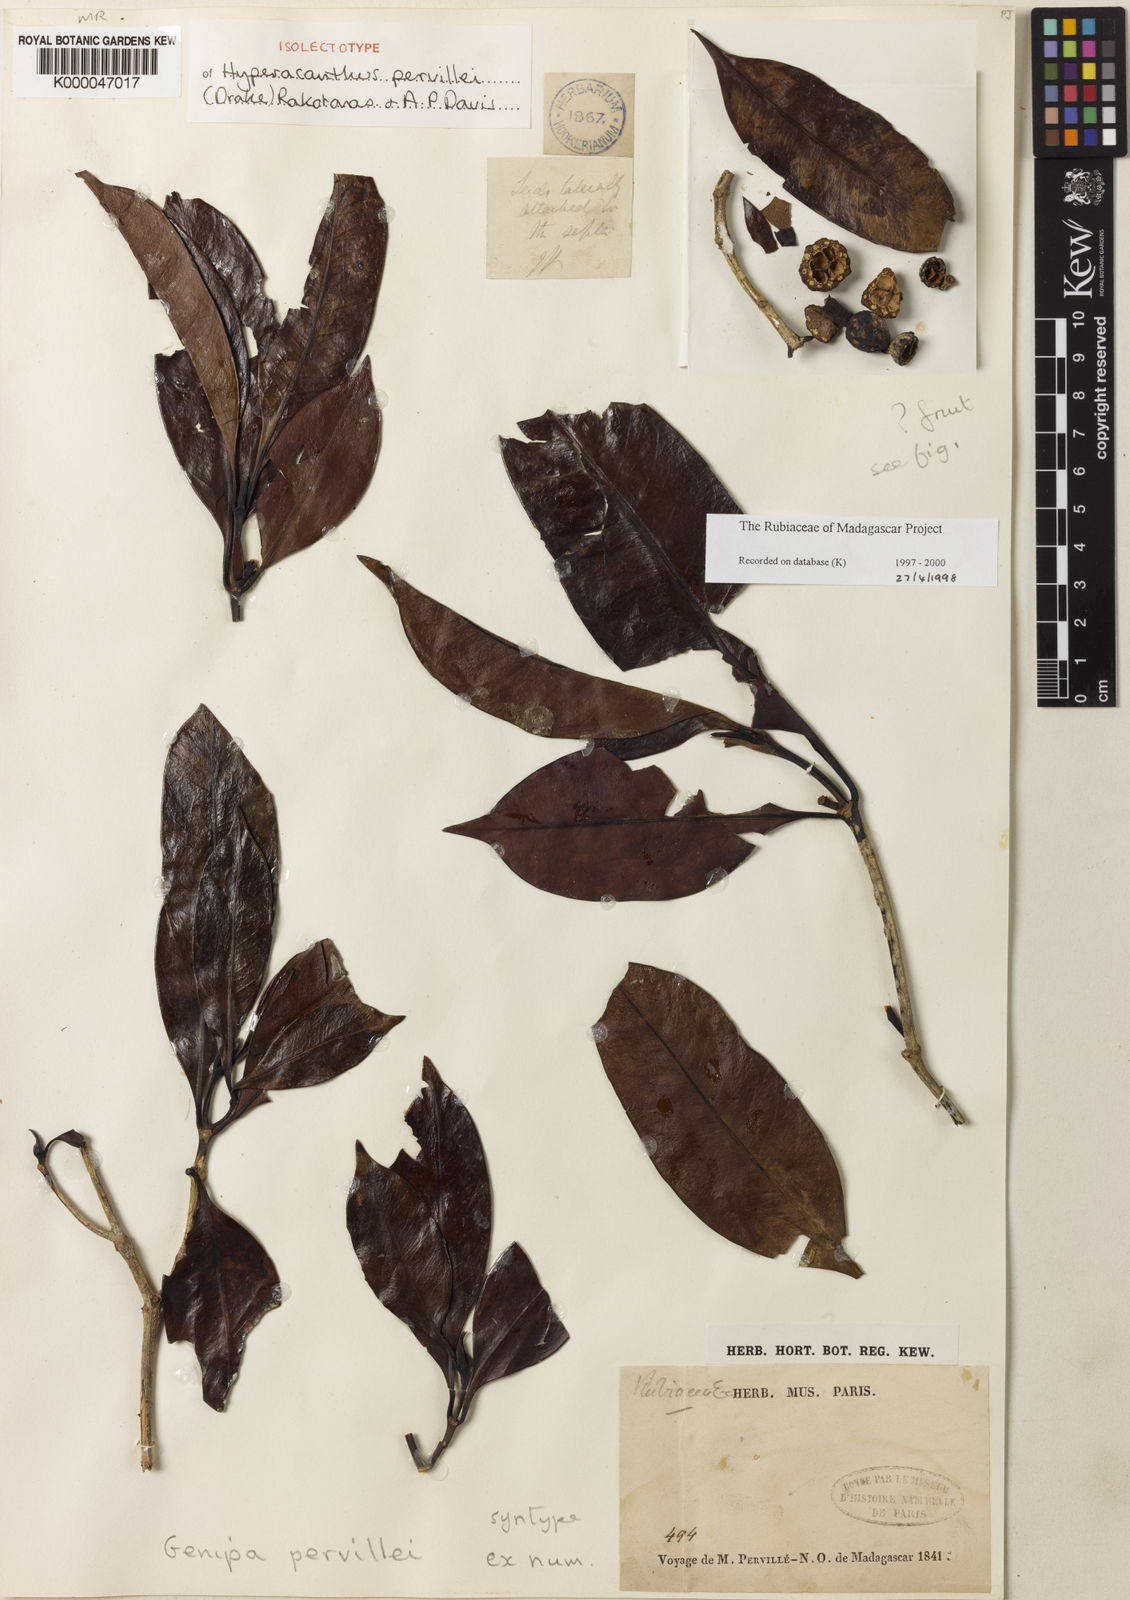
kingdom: Plantae
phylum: Tracheophyta
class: Magnoliopsida
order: Gentianales
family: Rubiaceae
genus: Hyperacanthus
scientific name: Hyperacanthus pervillei
